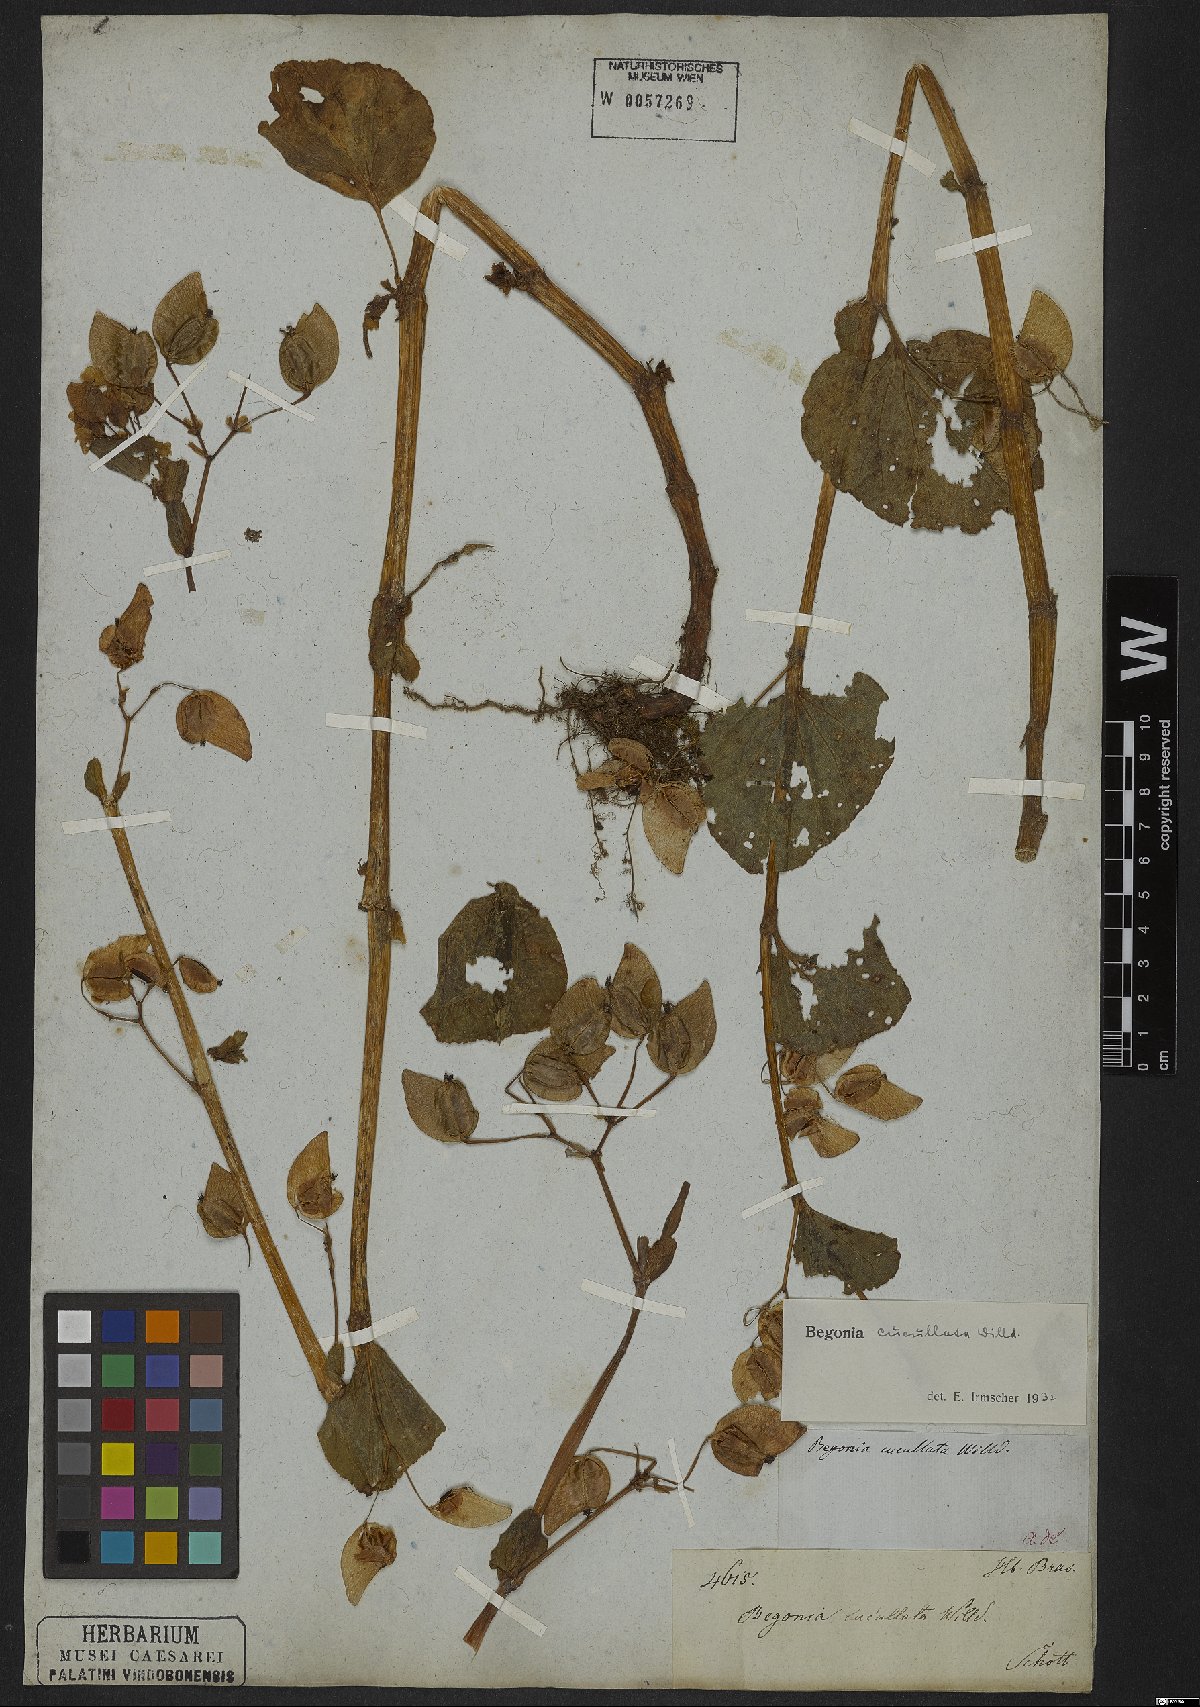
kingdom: Plantae
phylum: Tracheophyta
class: Magnoliopsida
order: Cucurbitales
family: Begoniaceae
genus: Begonia
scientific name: Begonia cucullata
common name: Clubbed begonia
